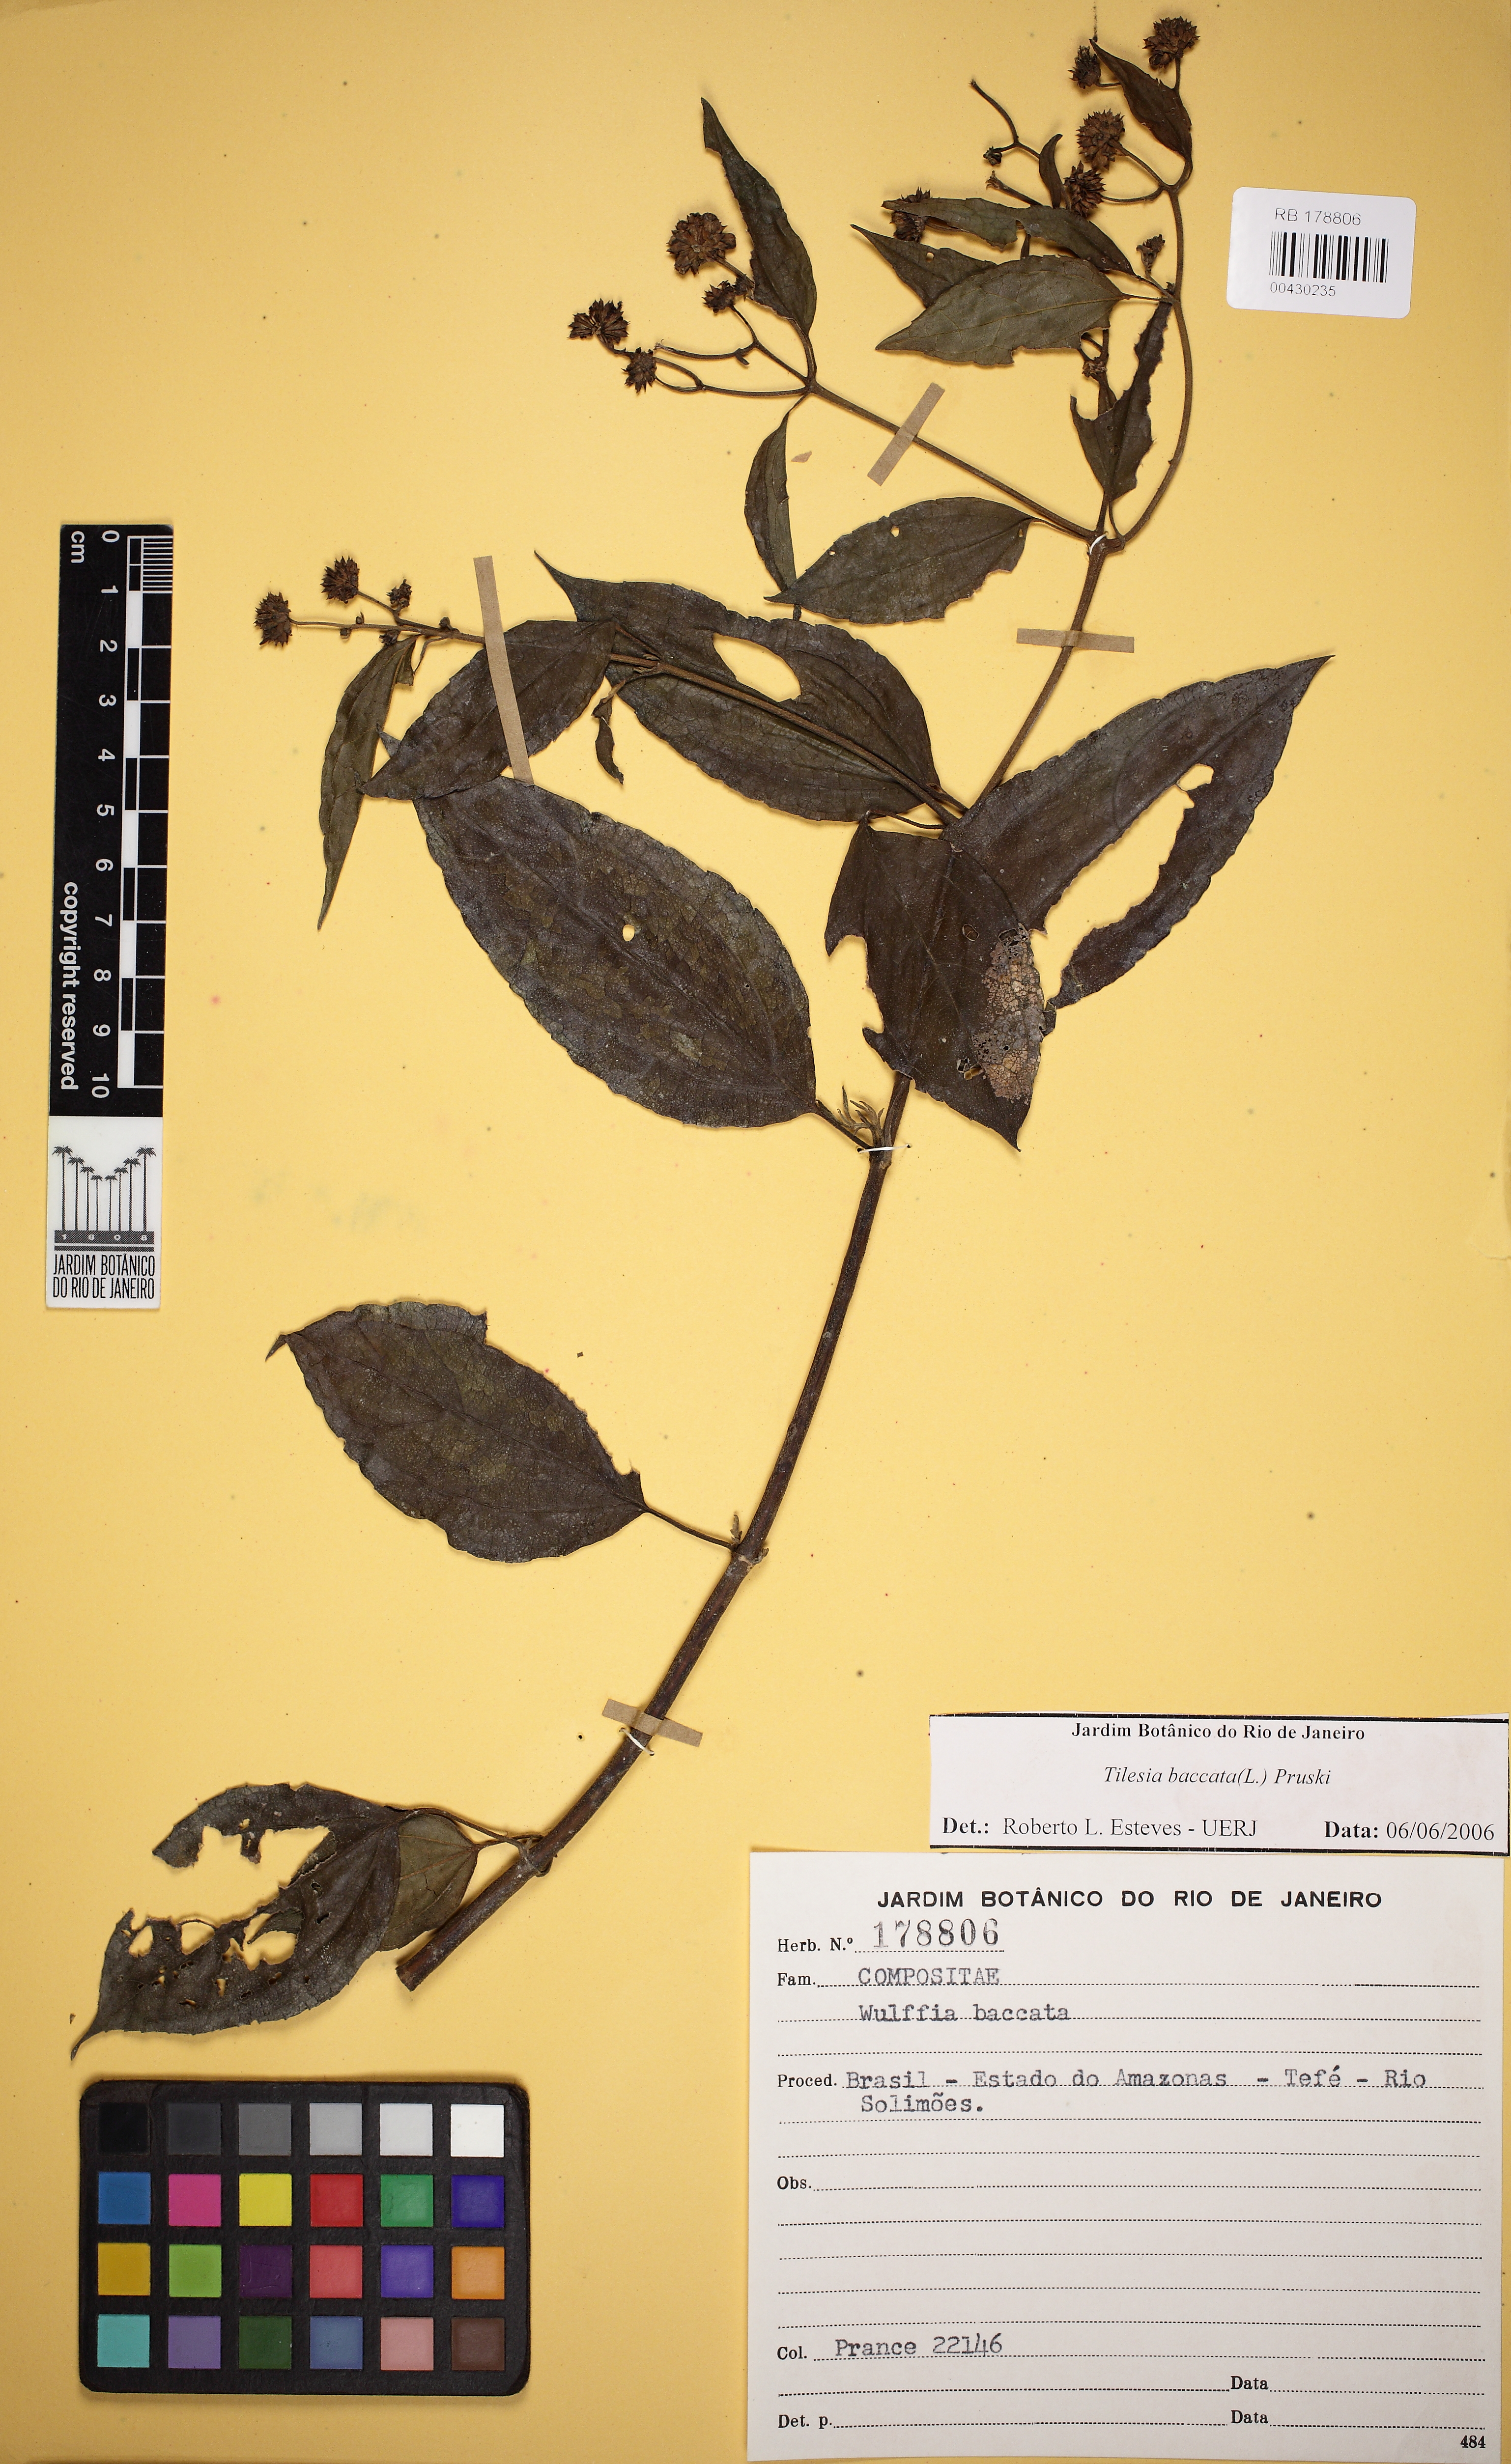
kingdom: Plantae
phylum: Tracheophyta
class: Magnoliopsida
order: Asterales
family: Asteraceae
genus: Tilesia
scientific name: Tilesia baccata
